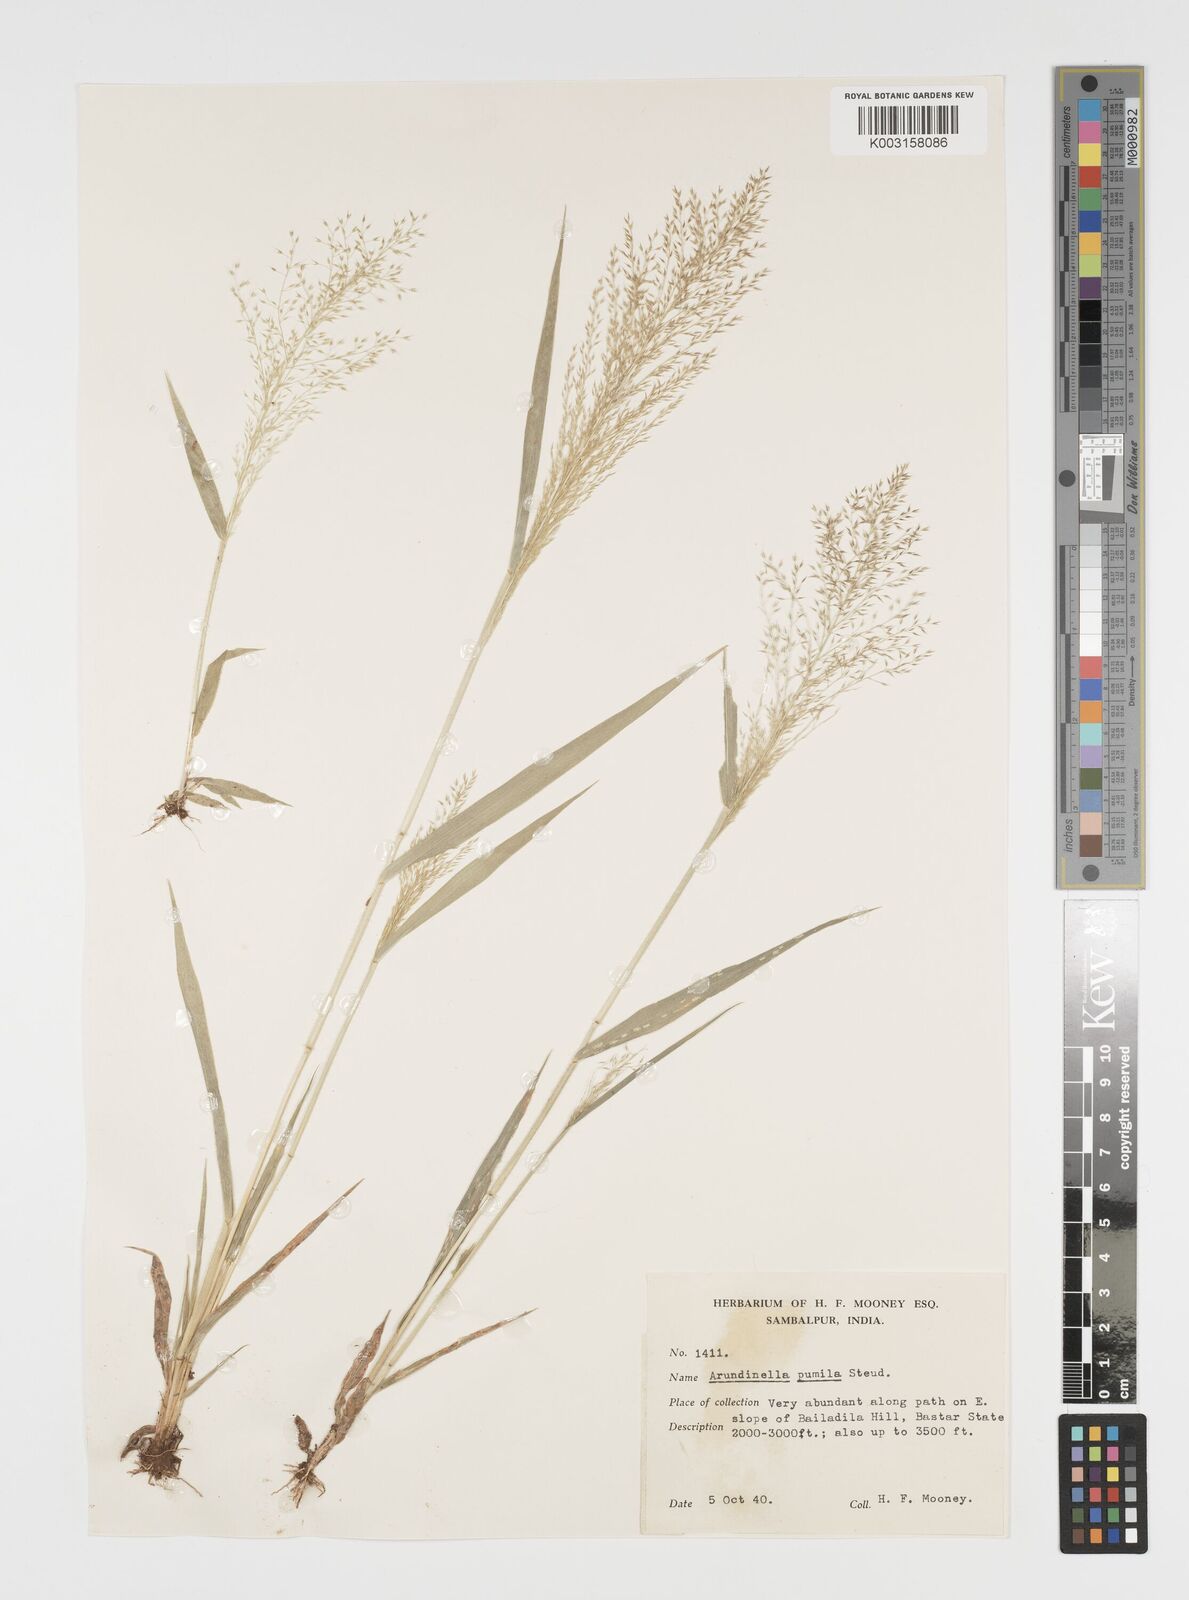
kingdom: Plantae
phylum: Tracheophyta
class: Liliopsida
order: Poales
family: Poaceae
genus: Arundinella
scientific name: Arundinella pumila
